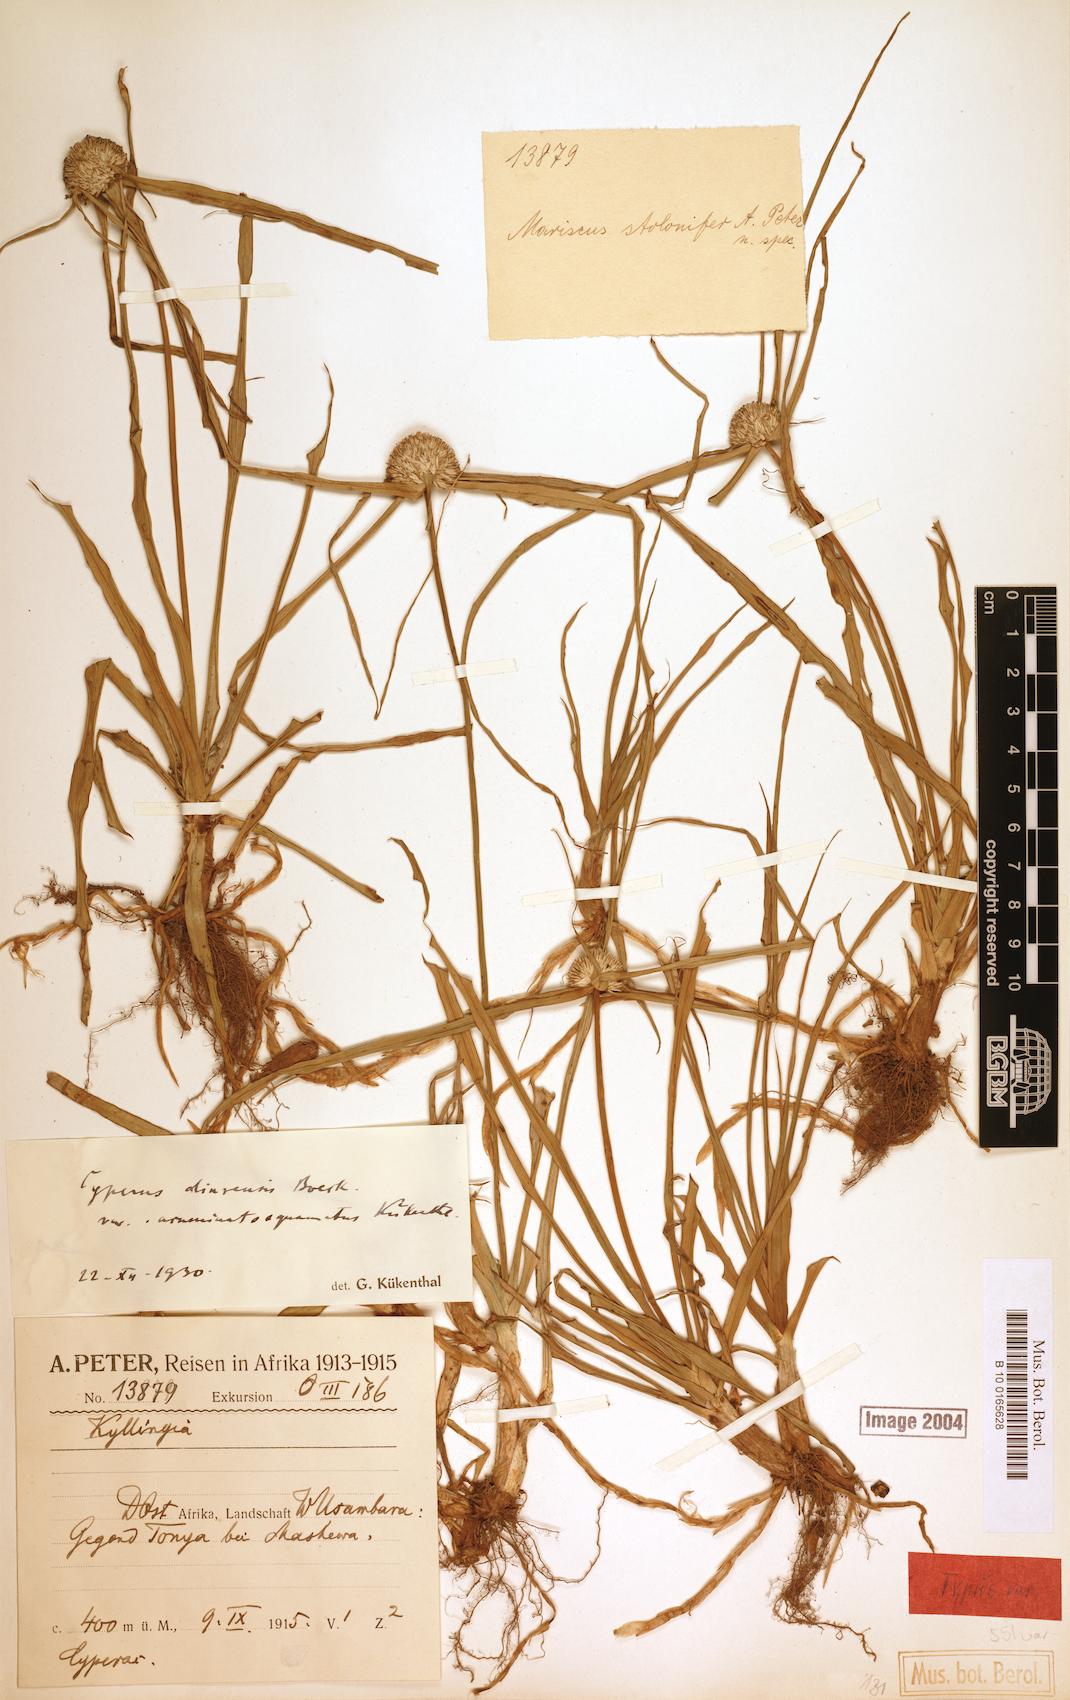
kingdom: Plantae
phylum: Tracheophyta
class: Liliopsida
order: Poales
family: Cyperaceae
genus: Cyperus
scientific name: Cyperus diurensis
